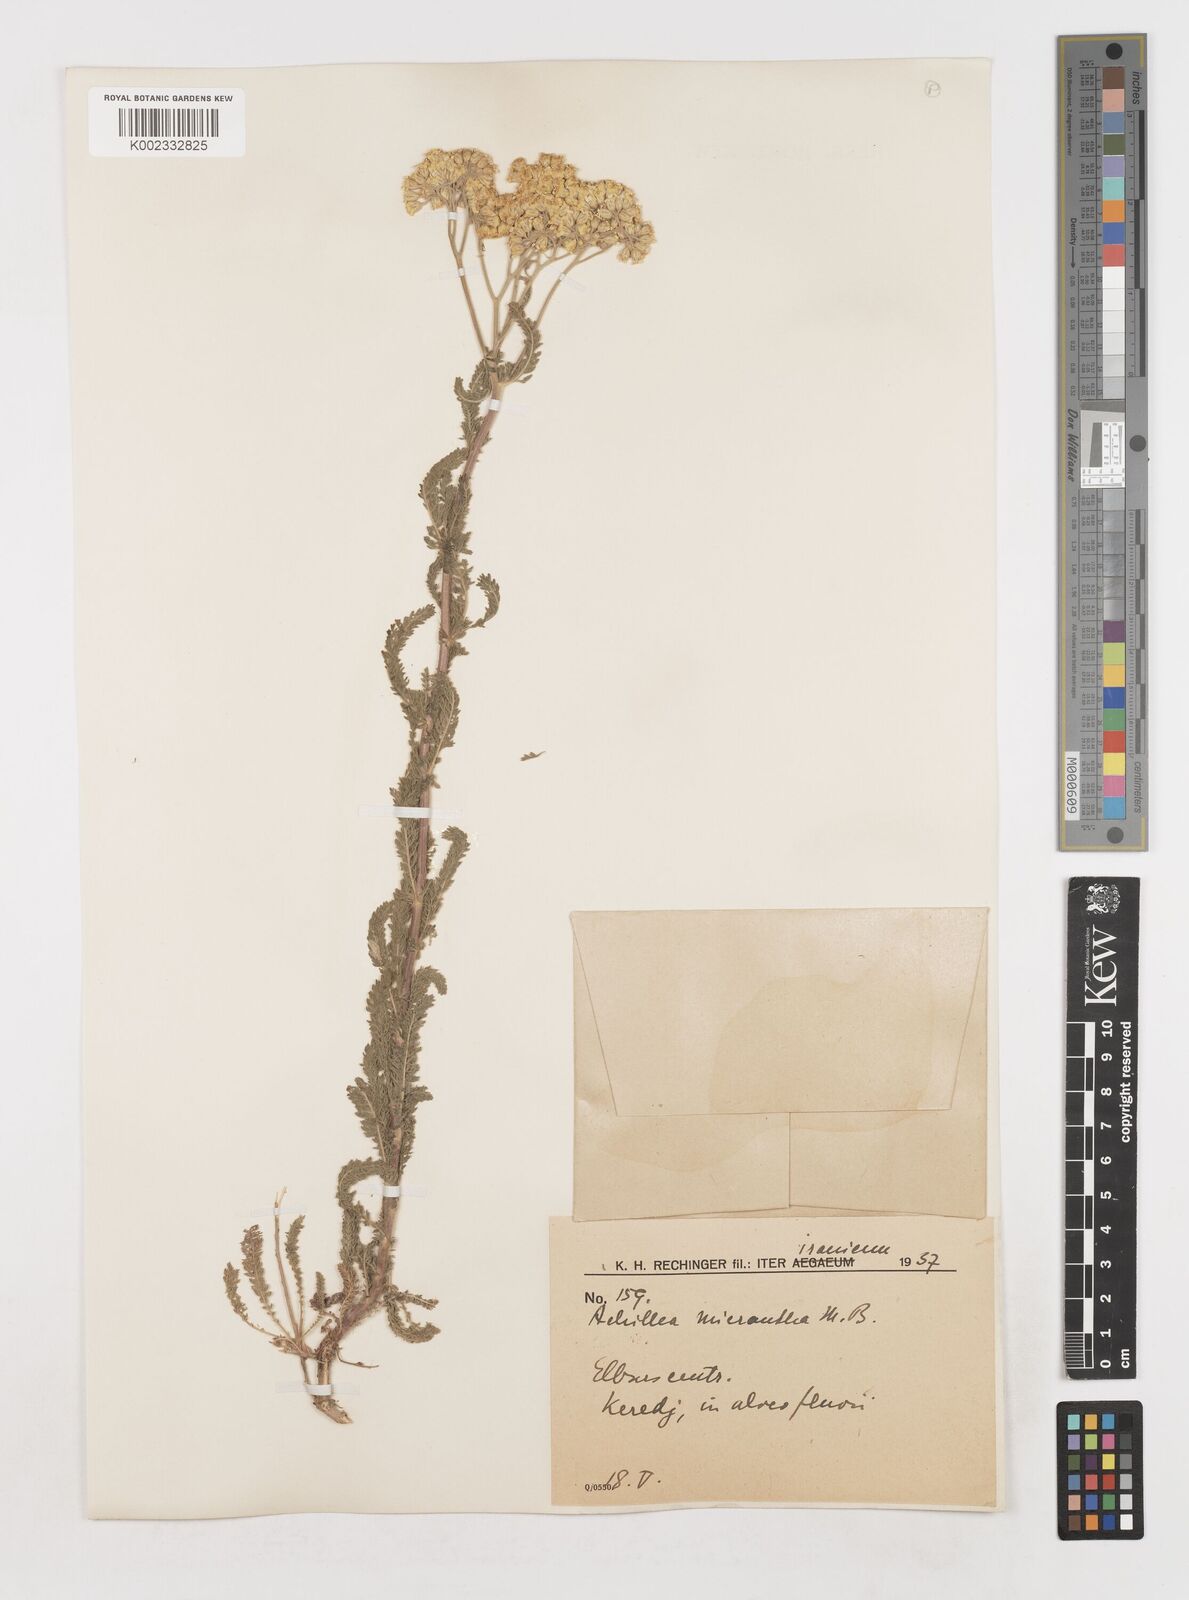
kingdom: Plantae
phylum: Tracheophyta
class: Magnoliopsida
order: Asterales
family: Asteraceae
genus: Achillea
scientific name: Achillea arabica
